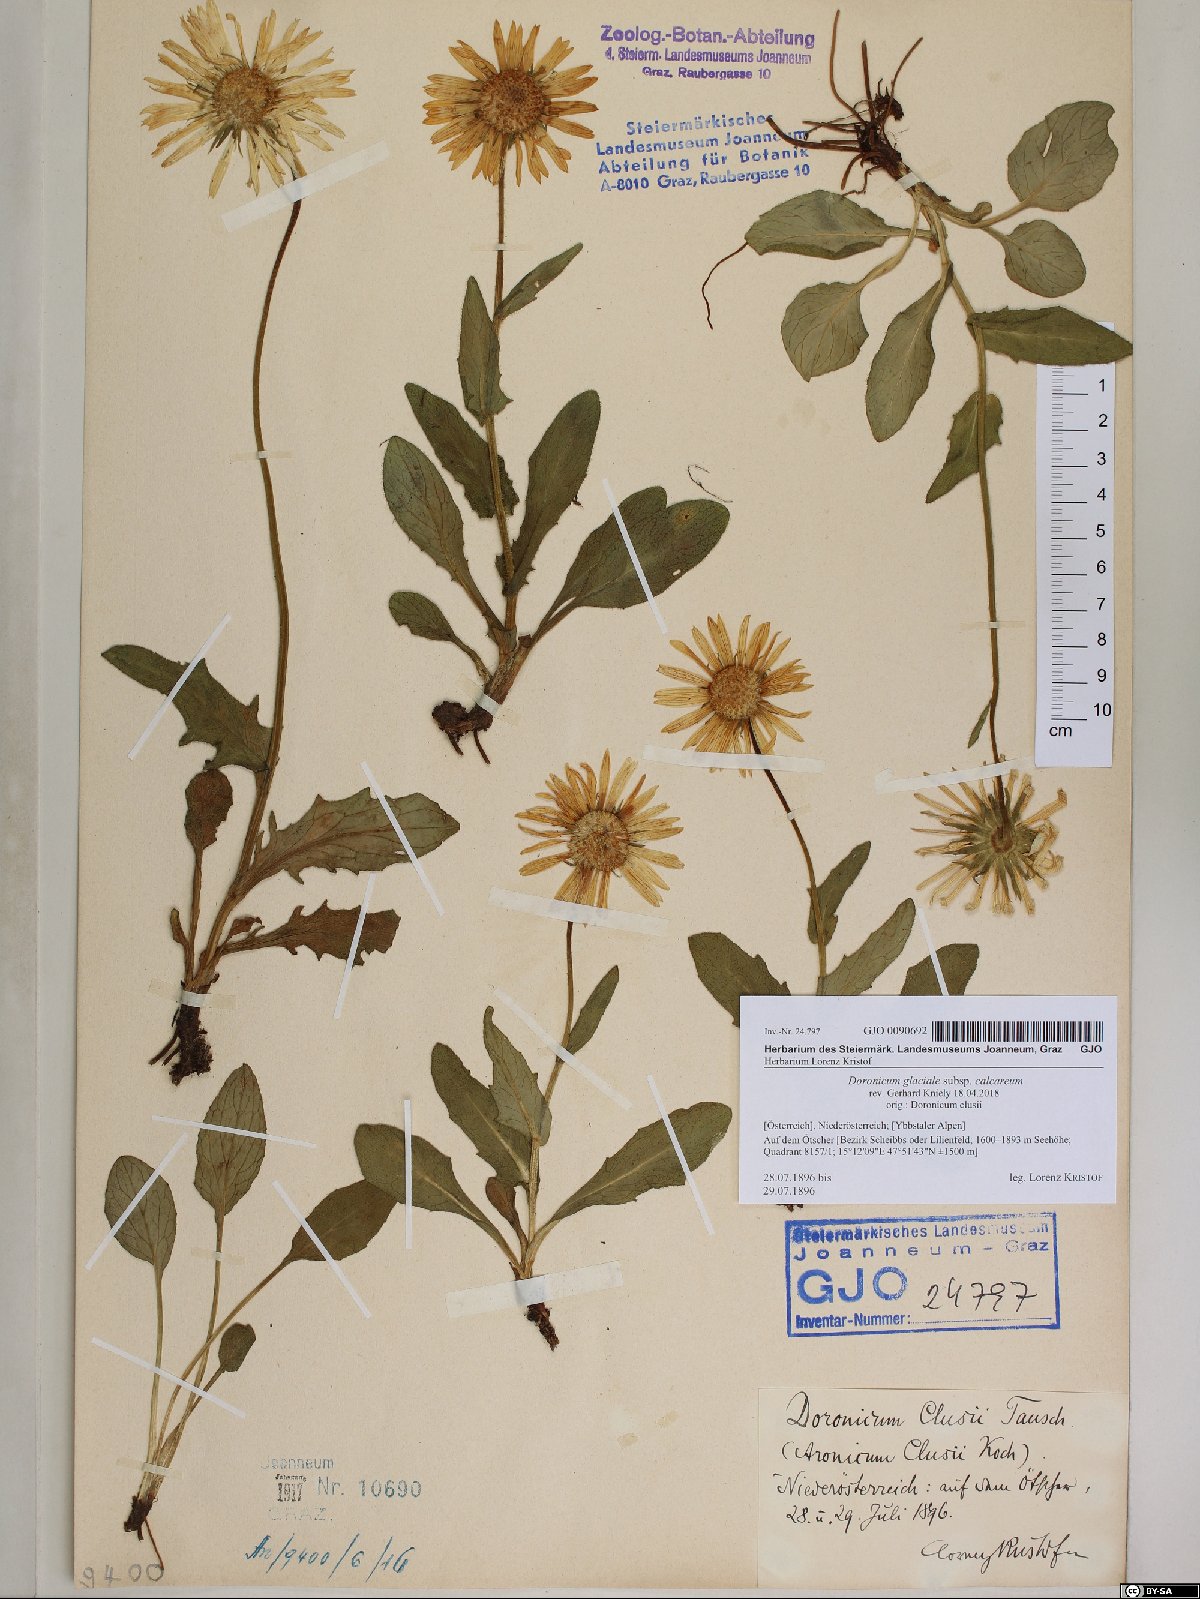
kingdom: Plantae
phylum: Tracheophyta
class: Magnoliopsida
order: Asterales
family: Asteraceae
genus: Doronicum
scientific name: Doronicum glaciale
